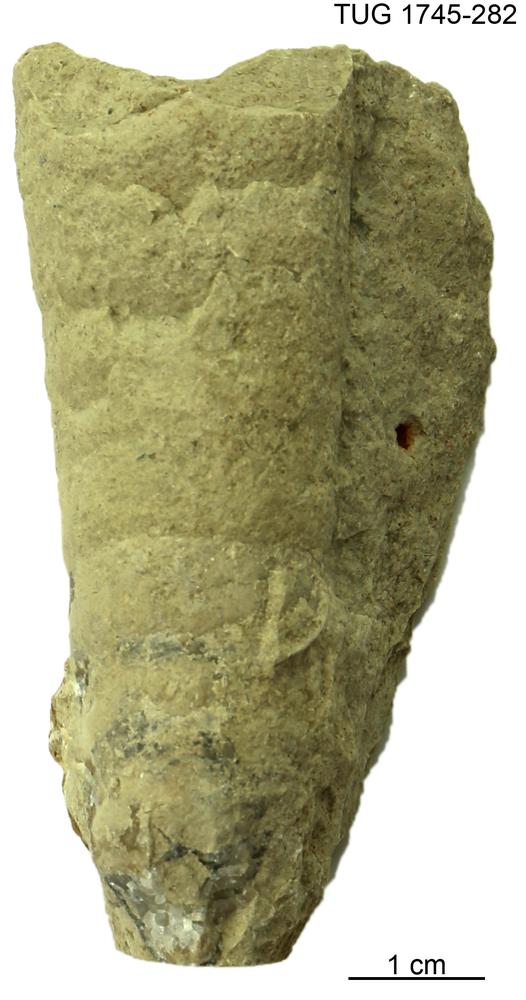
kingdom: Animalia
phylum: Mollusca
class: Cephalopoda
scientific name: Cephalopoda
